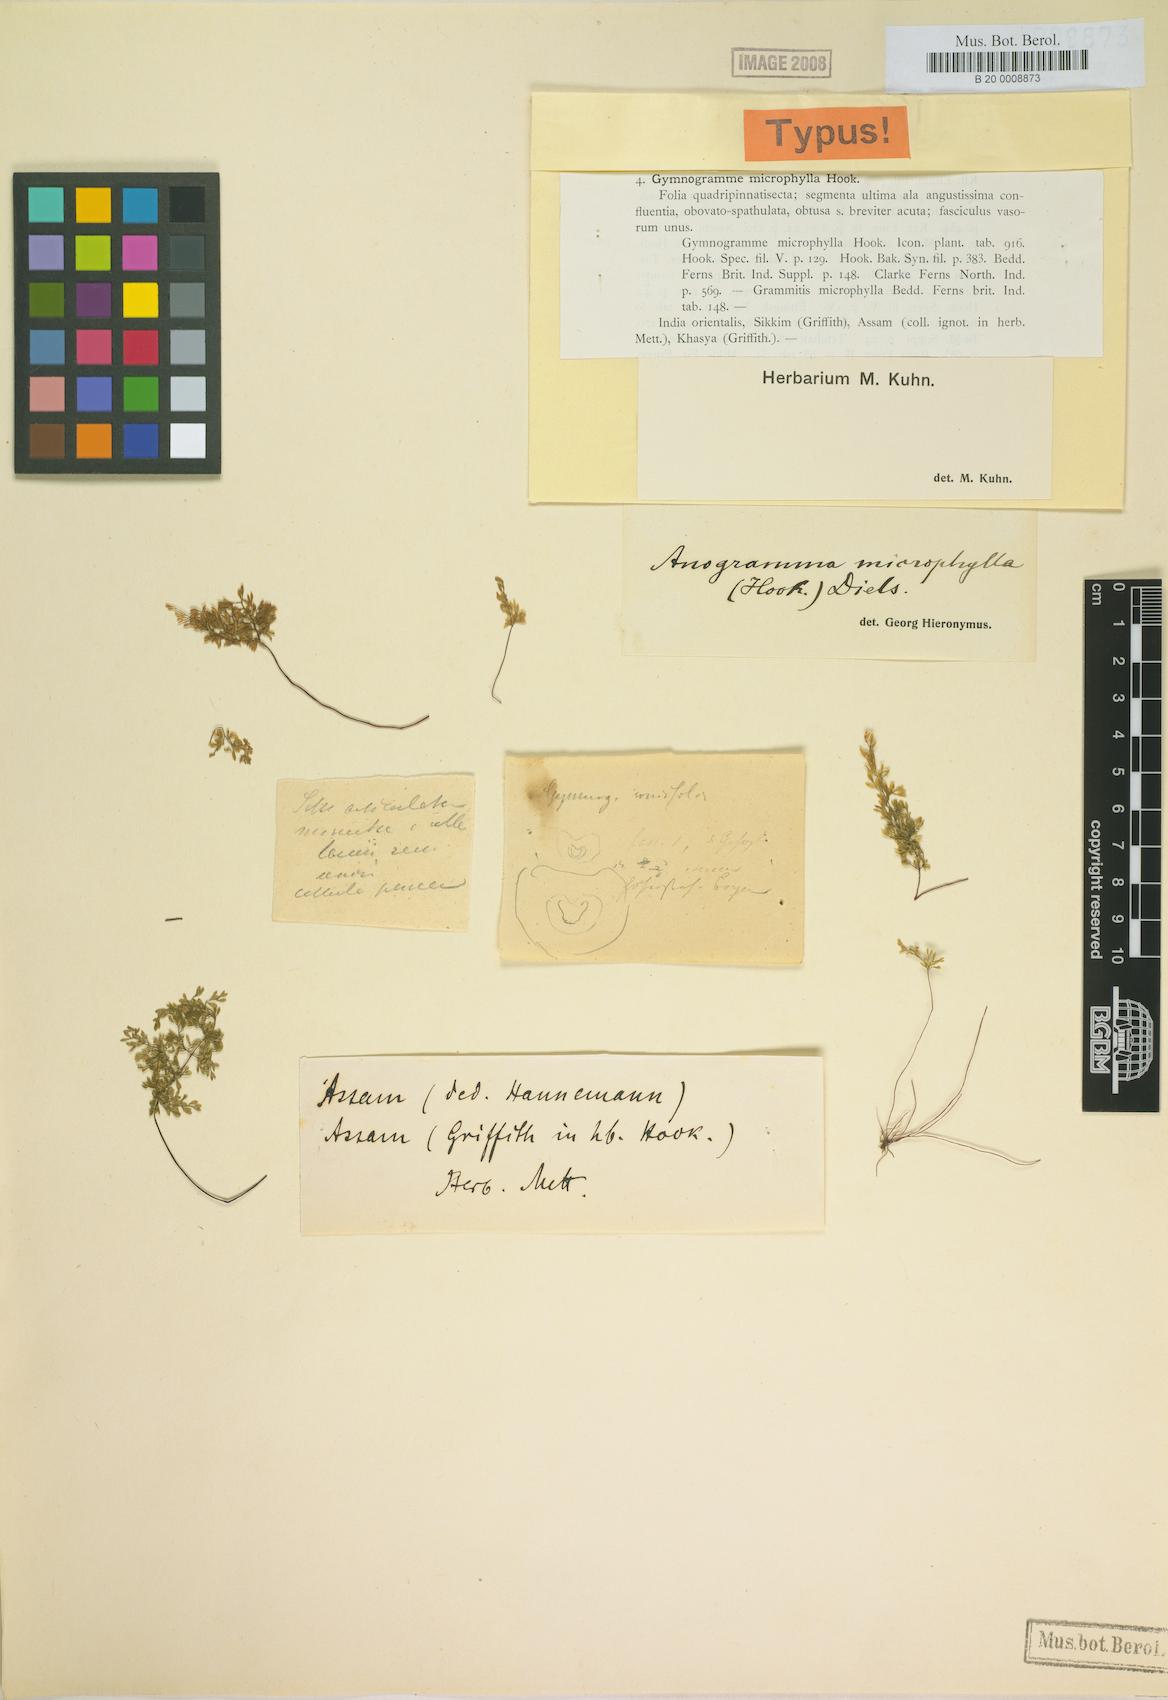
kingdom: Plantae
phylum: Tracheophyta
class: Polypodiopsida
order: Polypodiales
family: Pteridaceae
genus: Cerosora
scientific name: Cerosora microphylla
